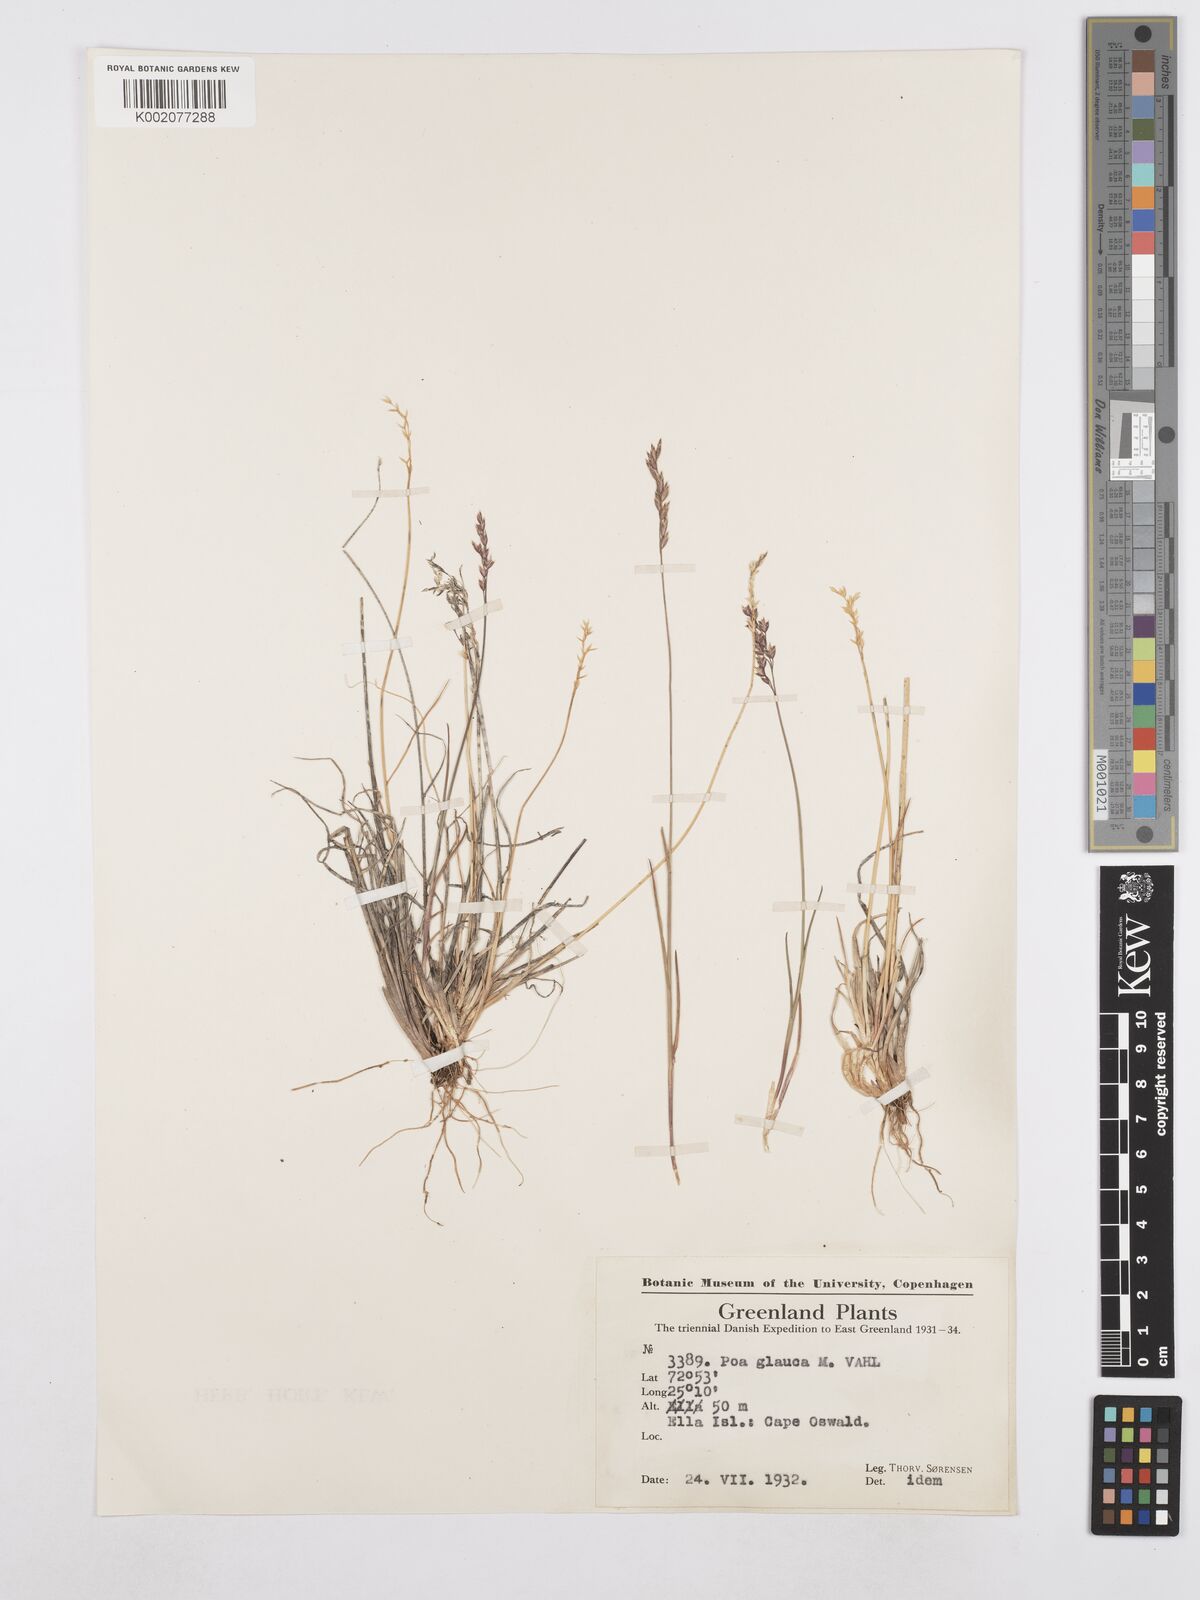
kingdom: Plantae
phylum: Tracheophyta
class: Liliopsida
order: Poales
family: Poaceae
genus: Poa
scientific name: Poa glauca
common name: Glaucous bluegrass
